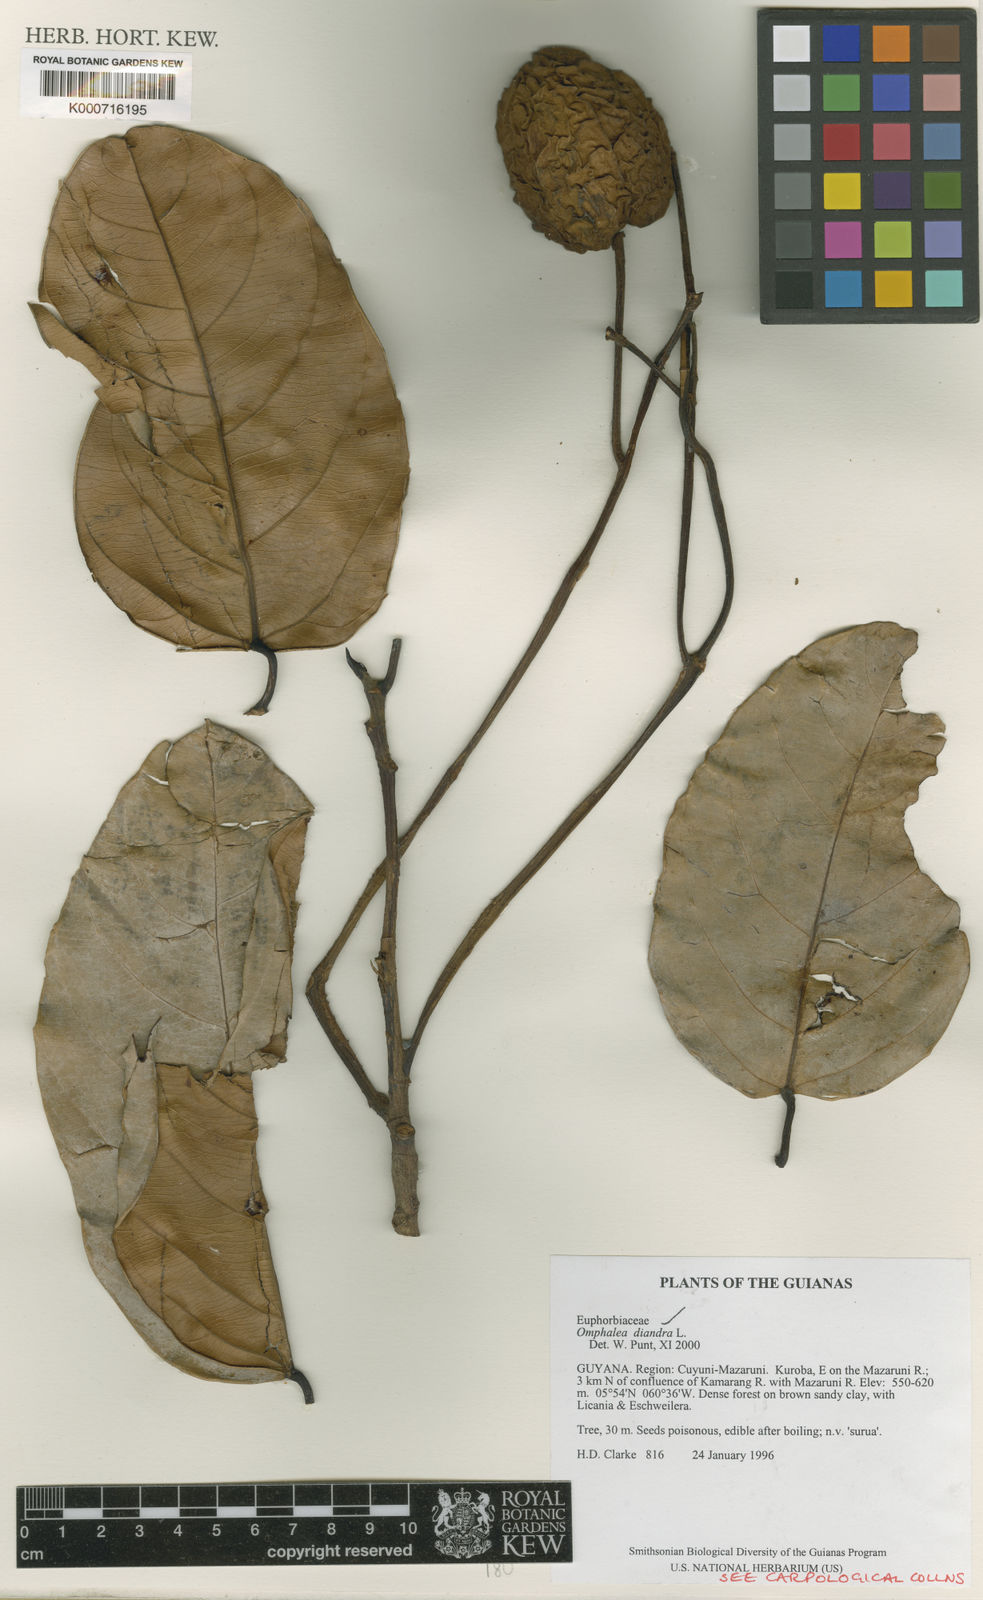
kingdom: Plantae
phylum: Tracheophyta
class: Magnoliopsida
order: Malpighiales
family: Euphorbiaceae
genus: Omphalea
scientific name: Omphalea diandra
